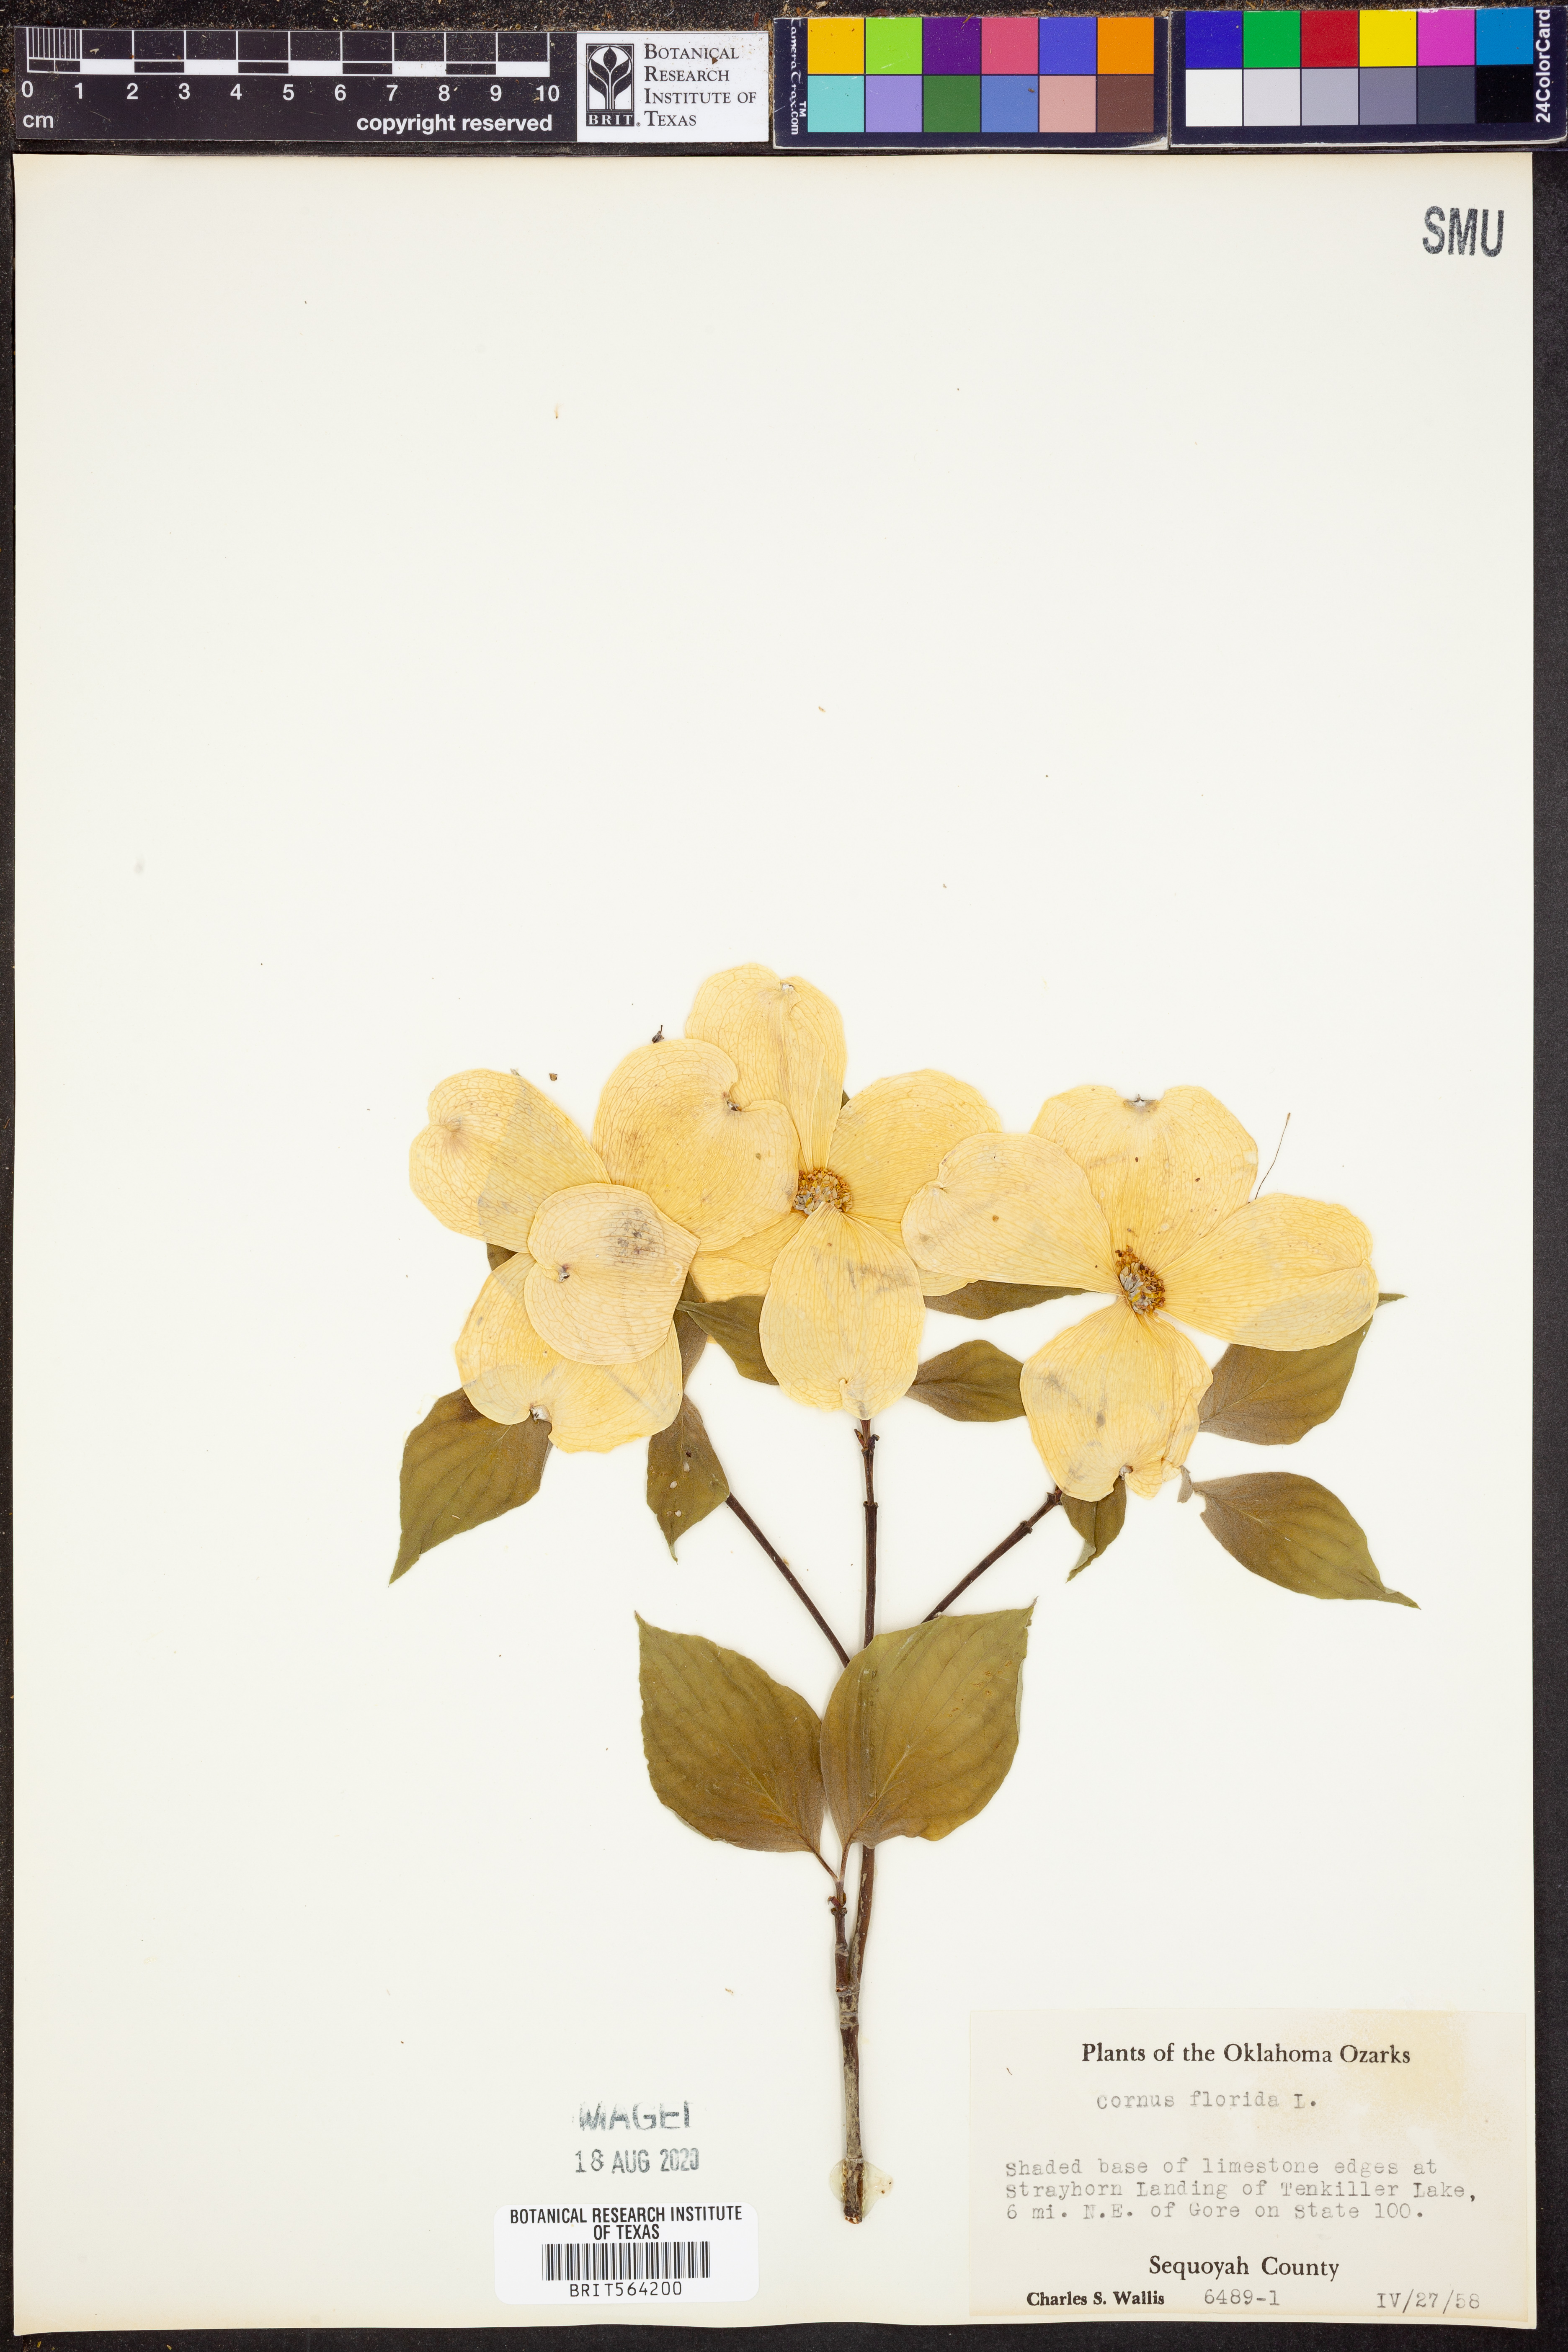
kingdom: Plantae
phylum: Tracheophyta
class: Magnoliopsida
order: Cornales
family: Cornaceae
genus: Cornus
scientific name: Cornus florida
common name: Flowering dogwood
